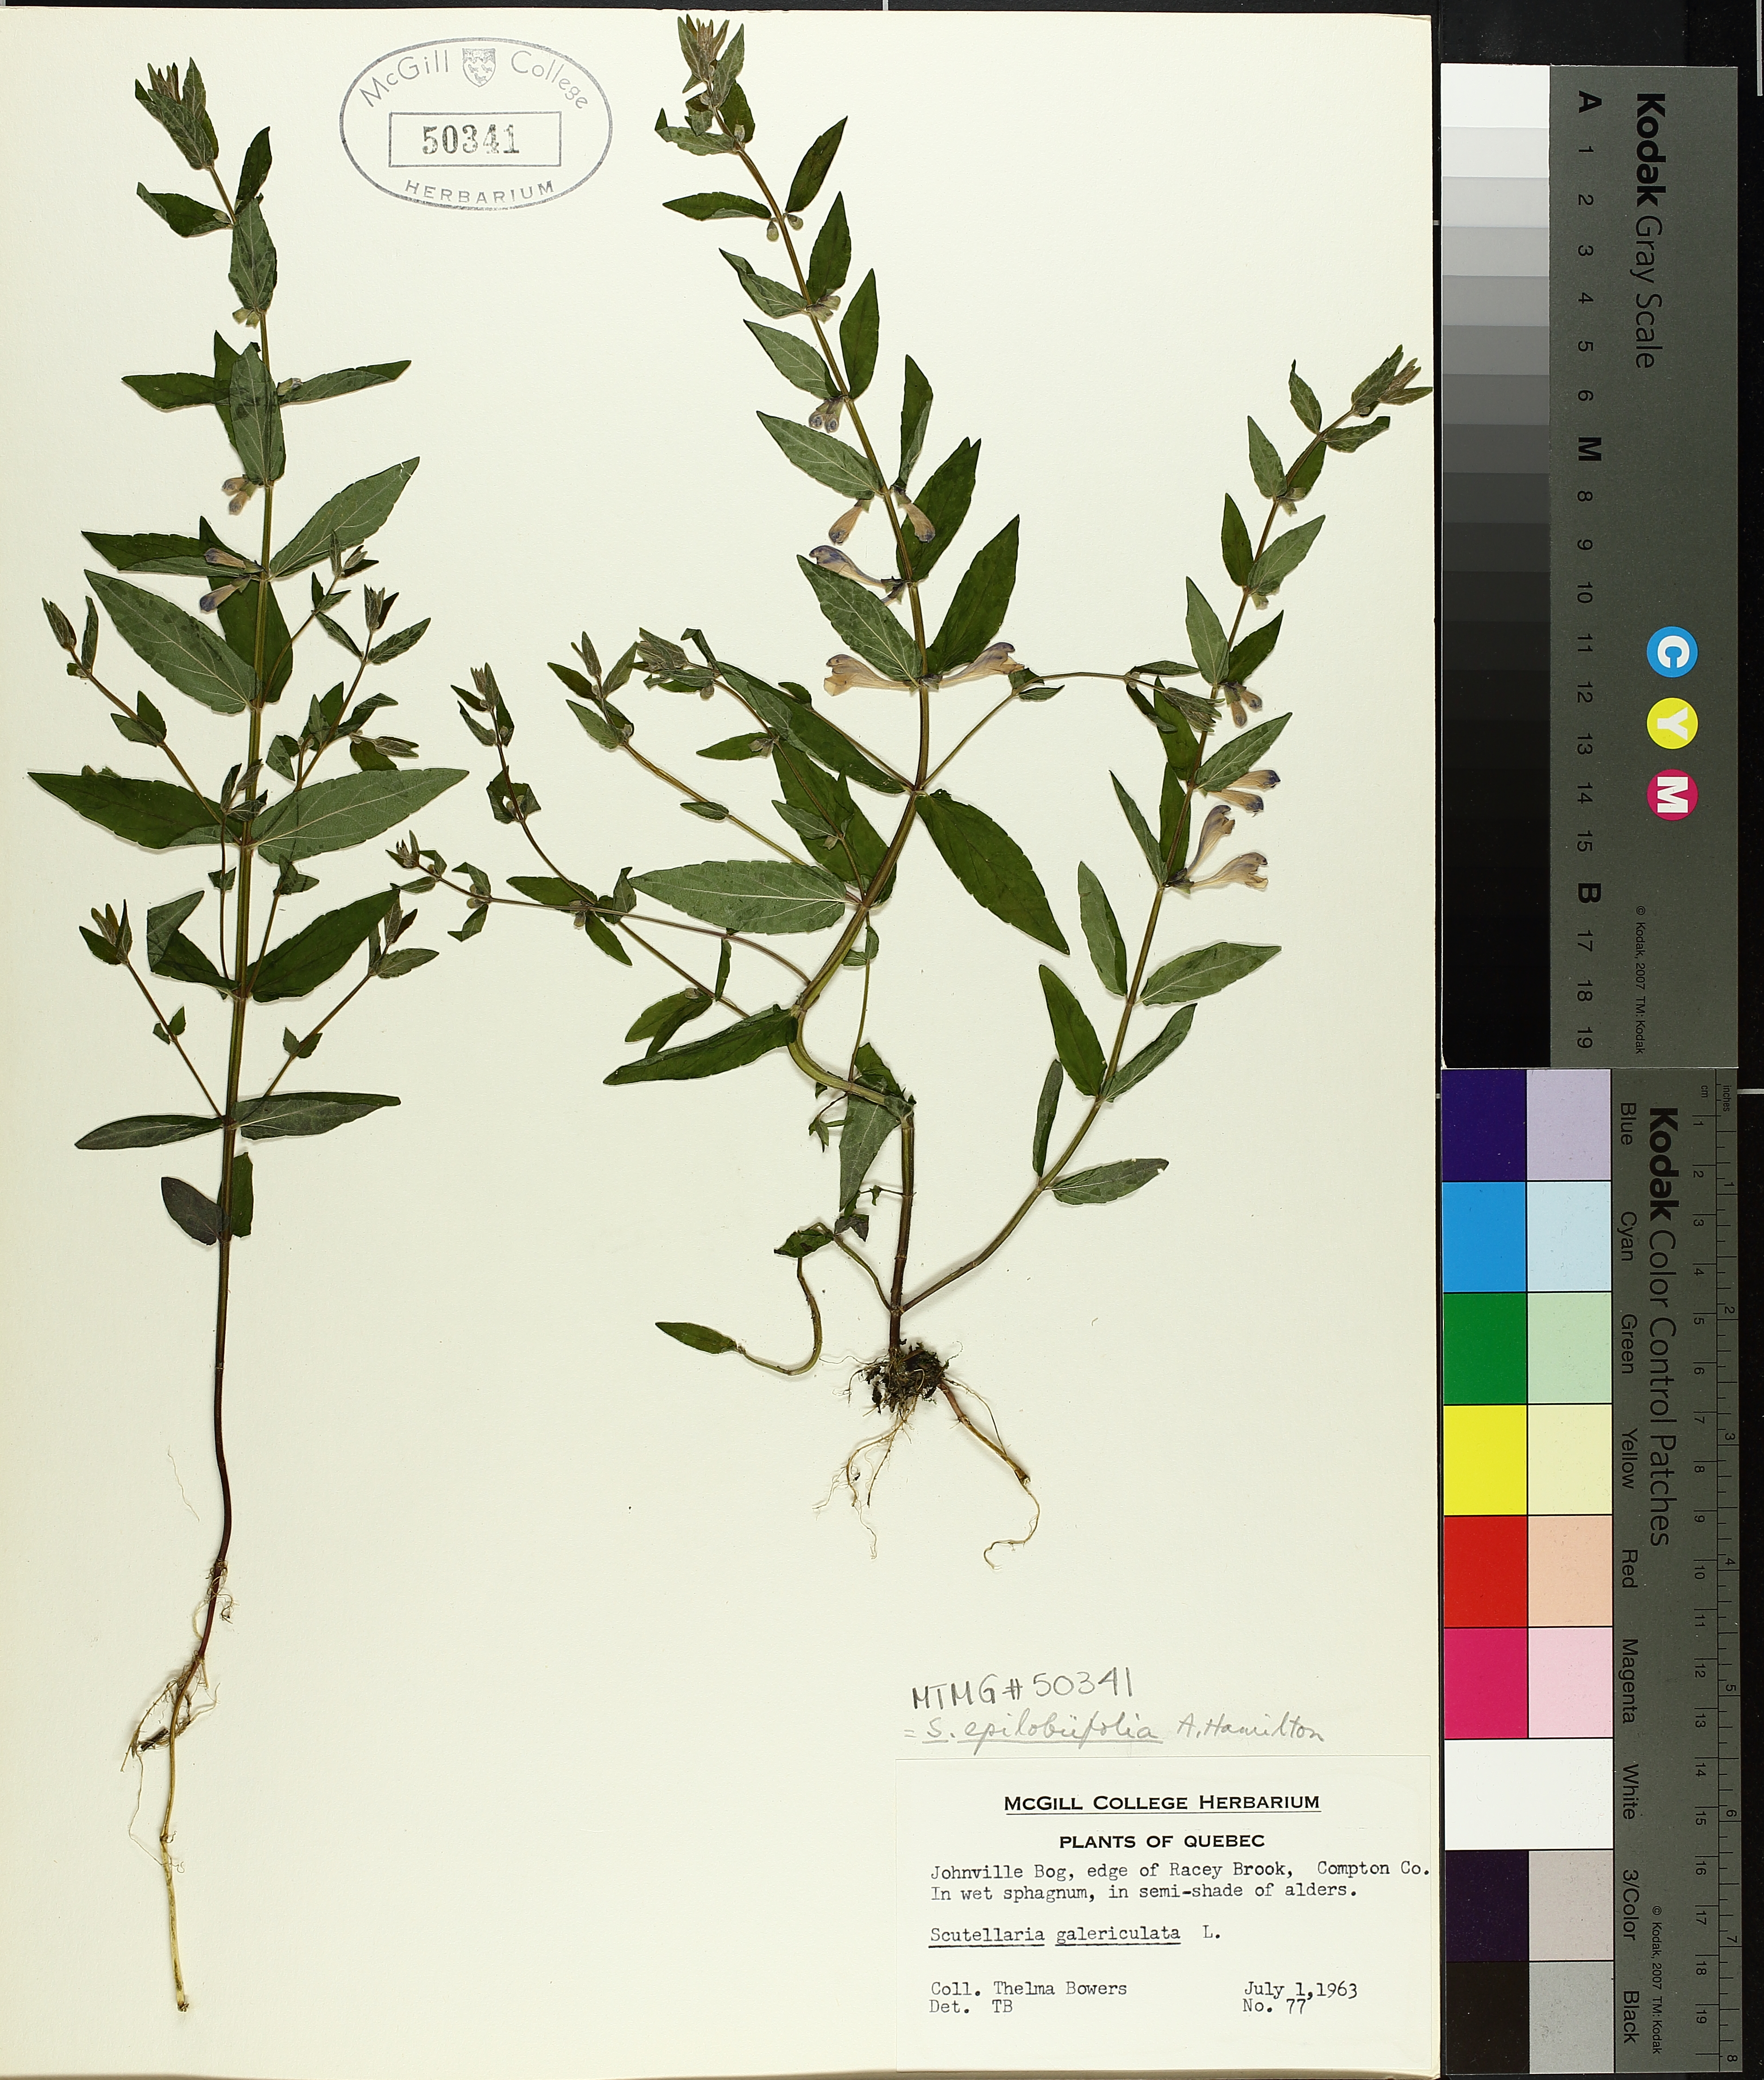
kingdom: Plantae
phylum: Tracheophyta
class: Magnoliopsida
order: Lamiales
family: Lamiaceae
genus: Scutellaria
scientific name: Scutellaria galericulata
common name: Skullcap
